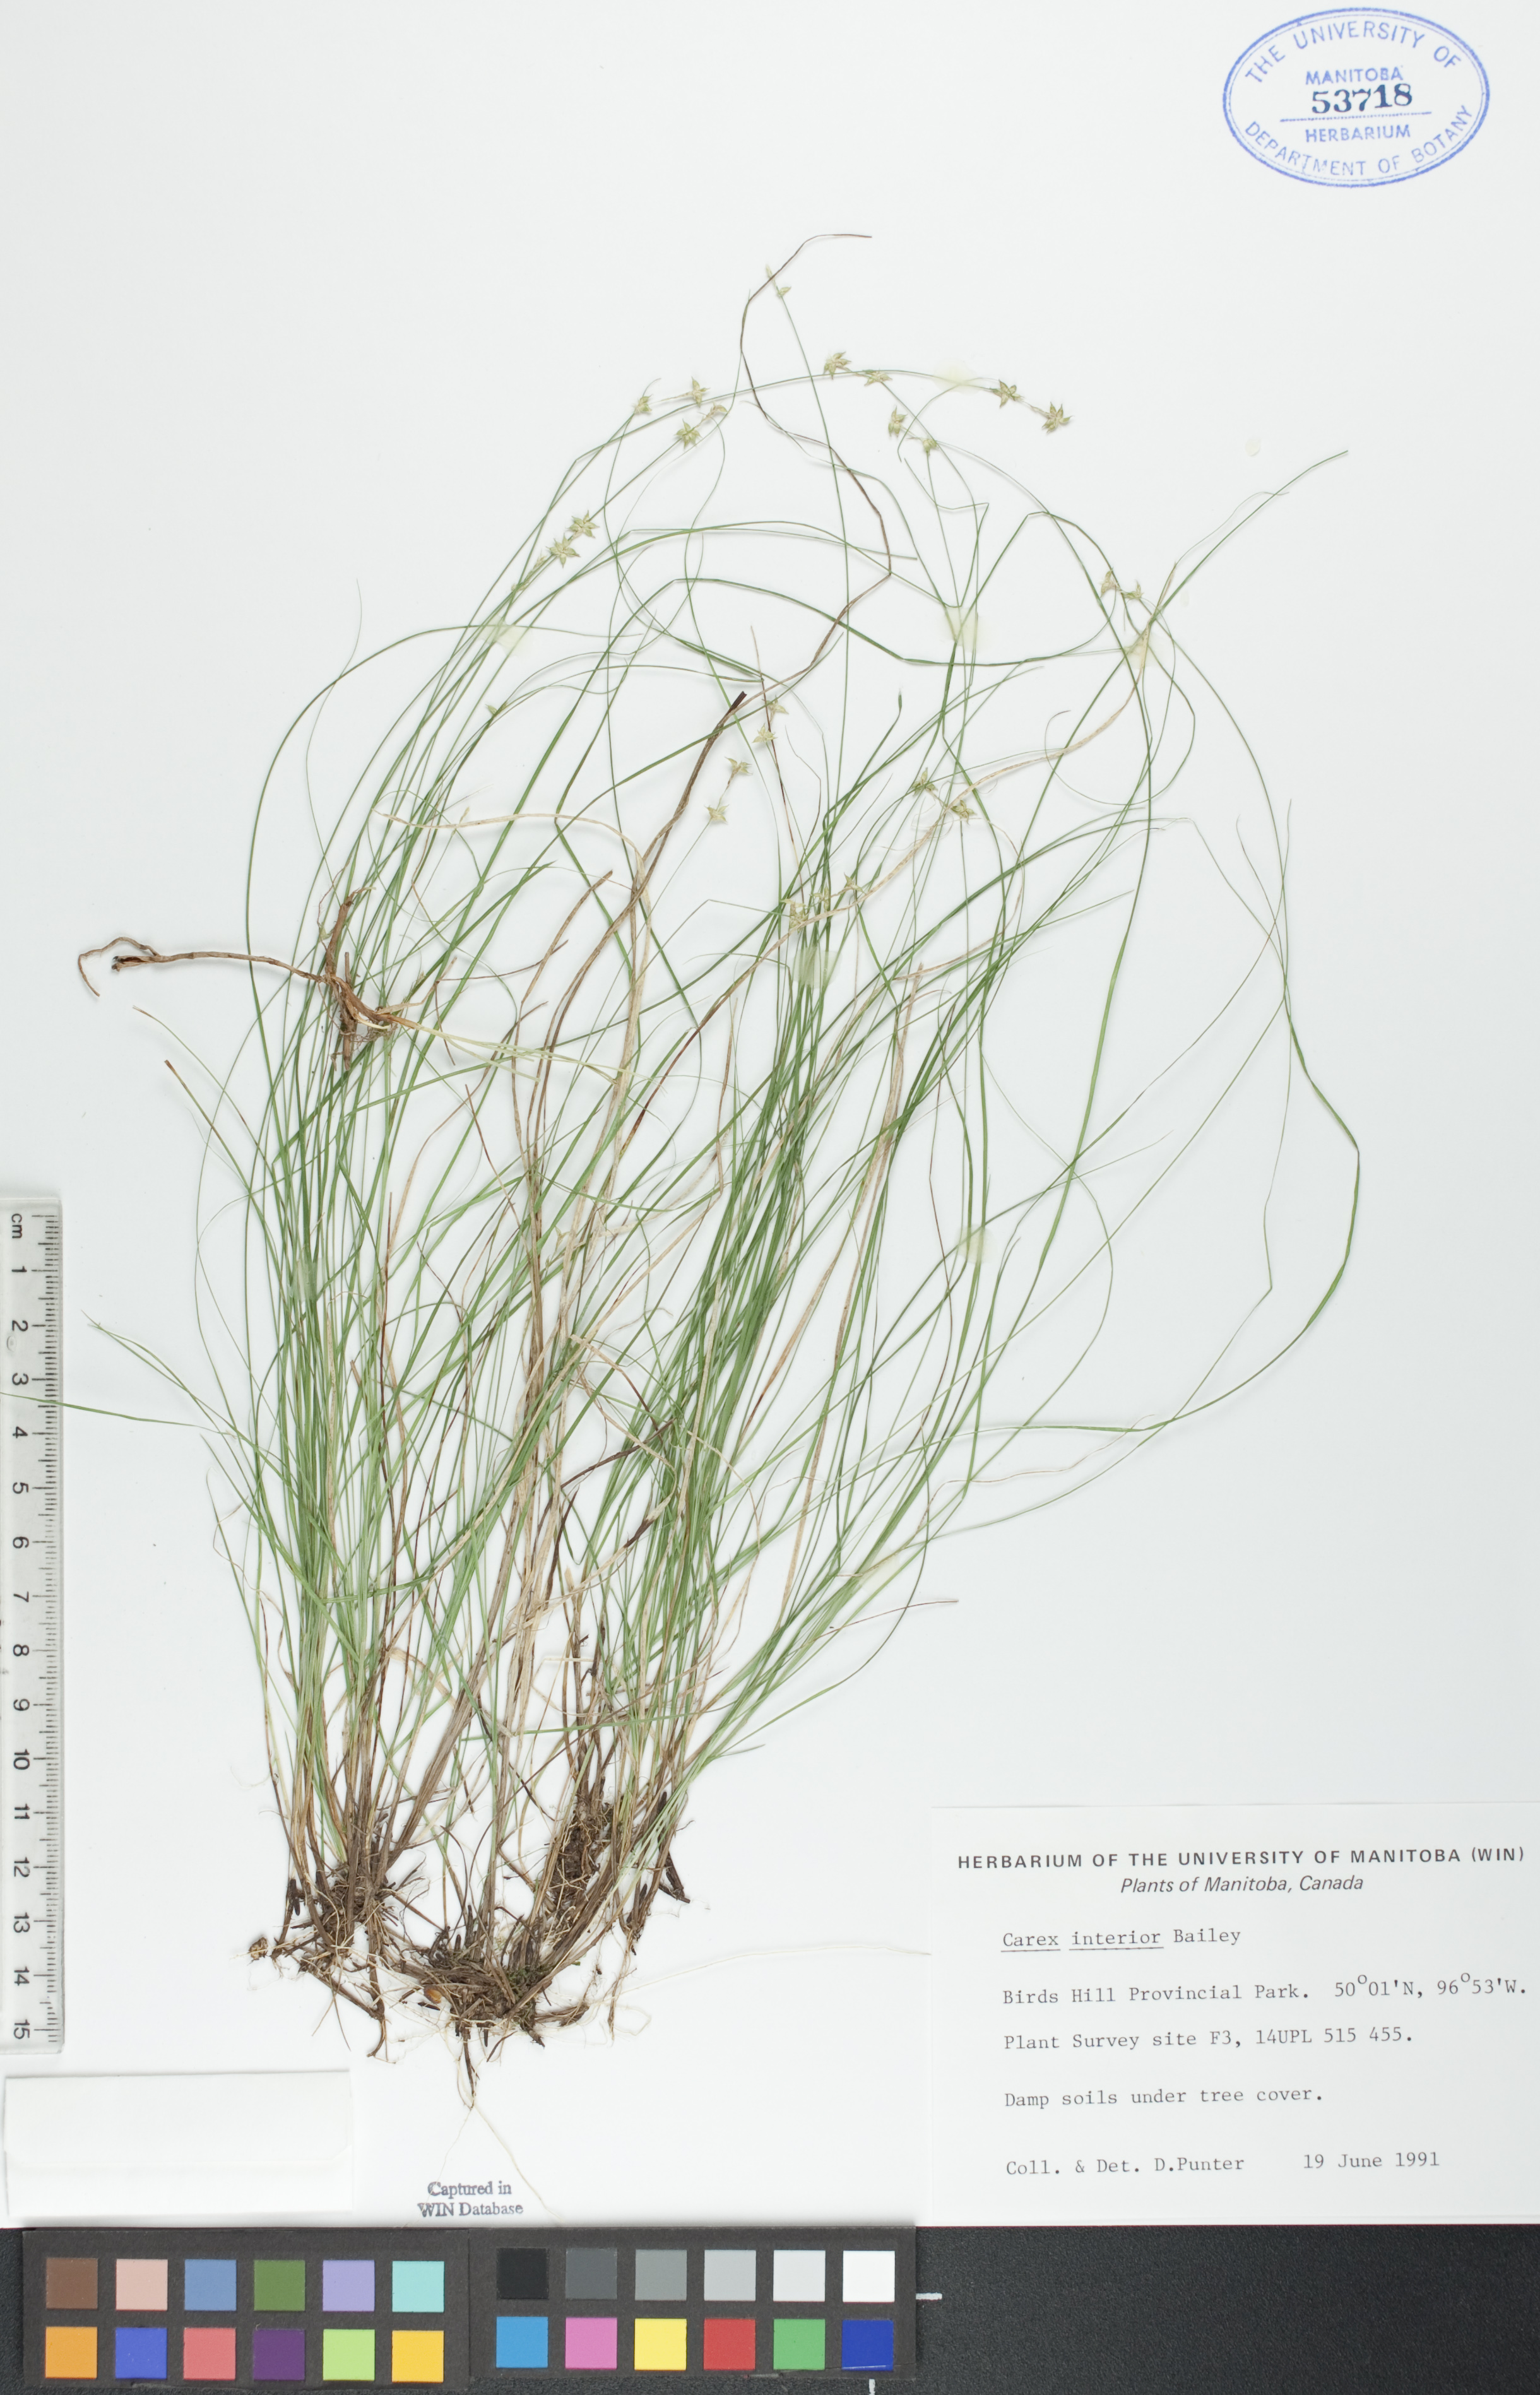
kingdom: Plantae
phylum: Tracheophyta
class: Liliopsida
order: Poales
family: Cyperaceae
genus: Carex
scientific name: Carex interior
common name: Inland sedge
